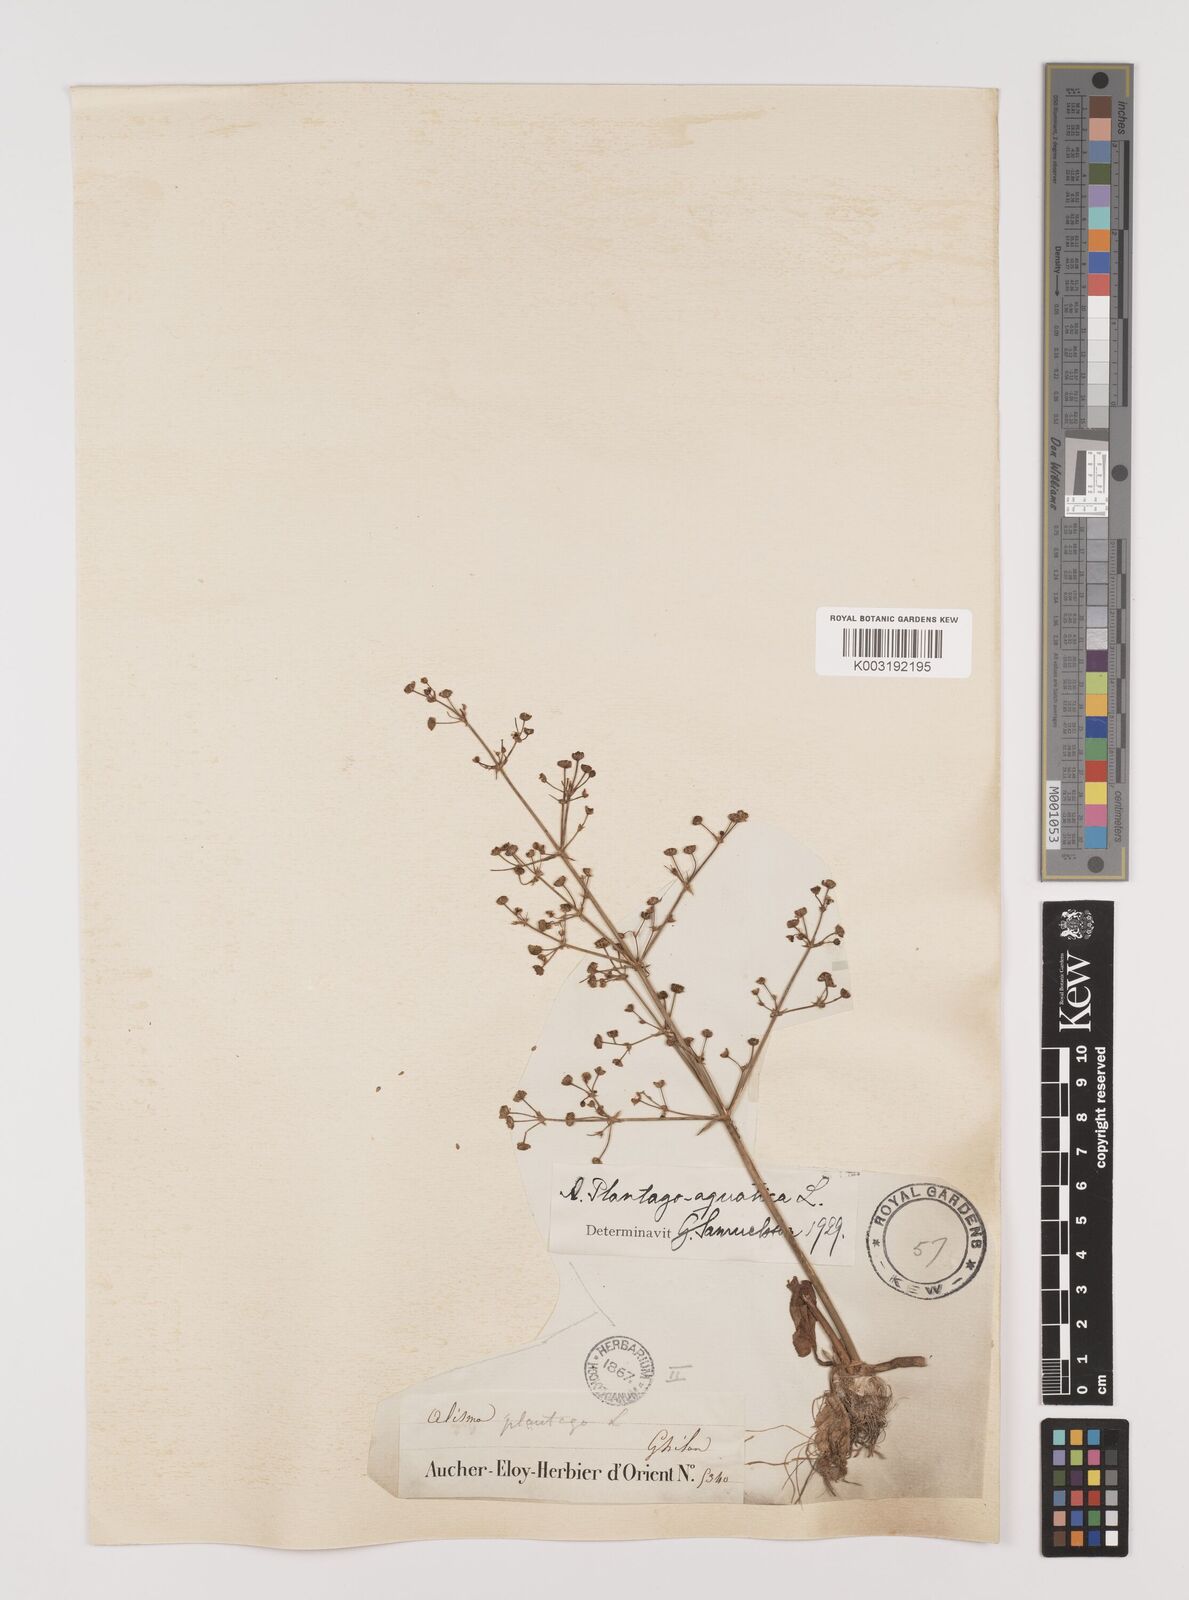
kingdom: Plantae
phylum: Tracheophyta
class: Liliopsida
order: Alismatales
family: Alismataceae
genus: Alisma
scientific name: Alisma plantago-aquatica
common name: Water-plantain
